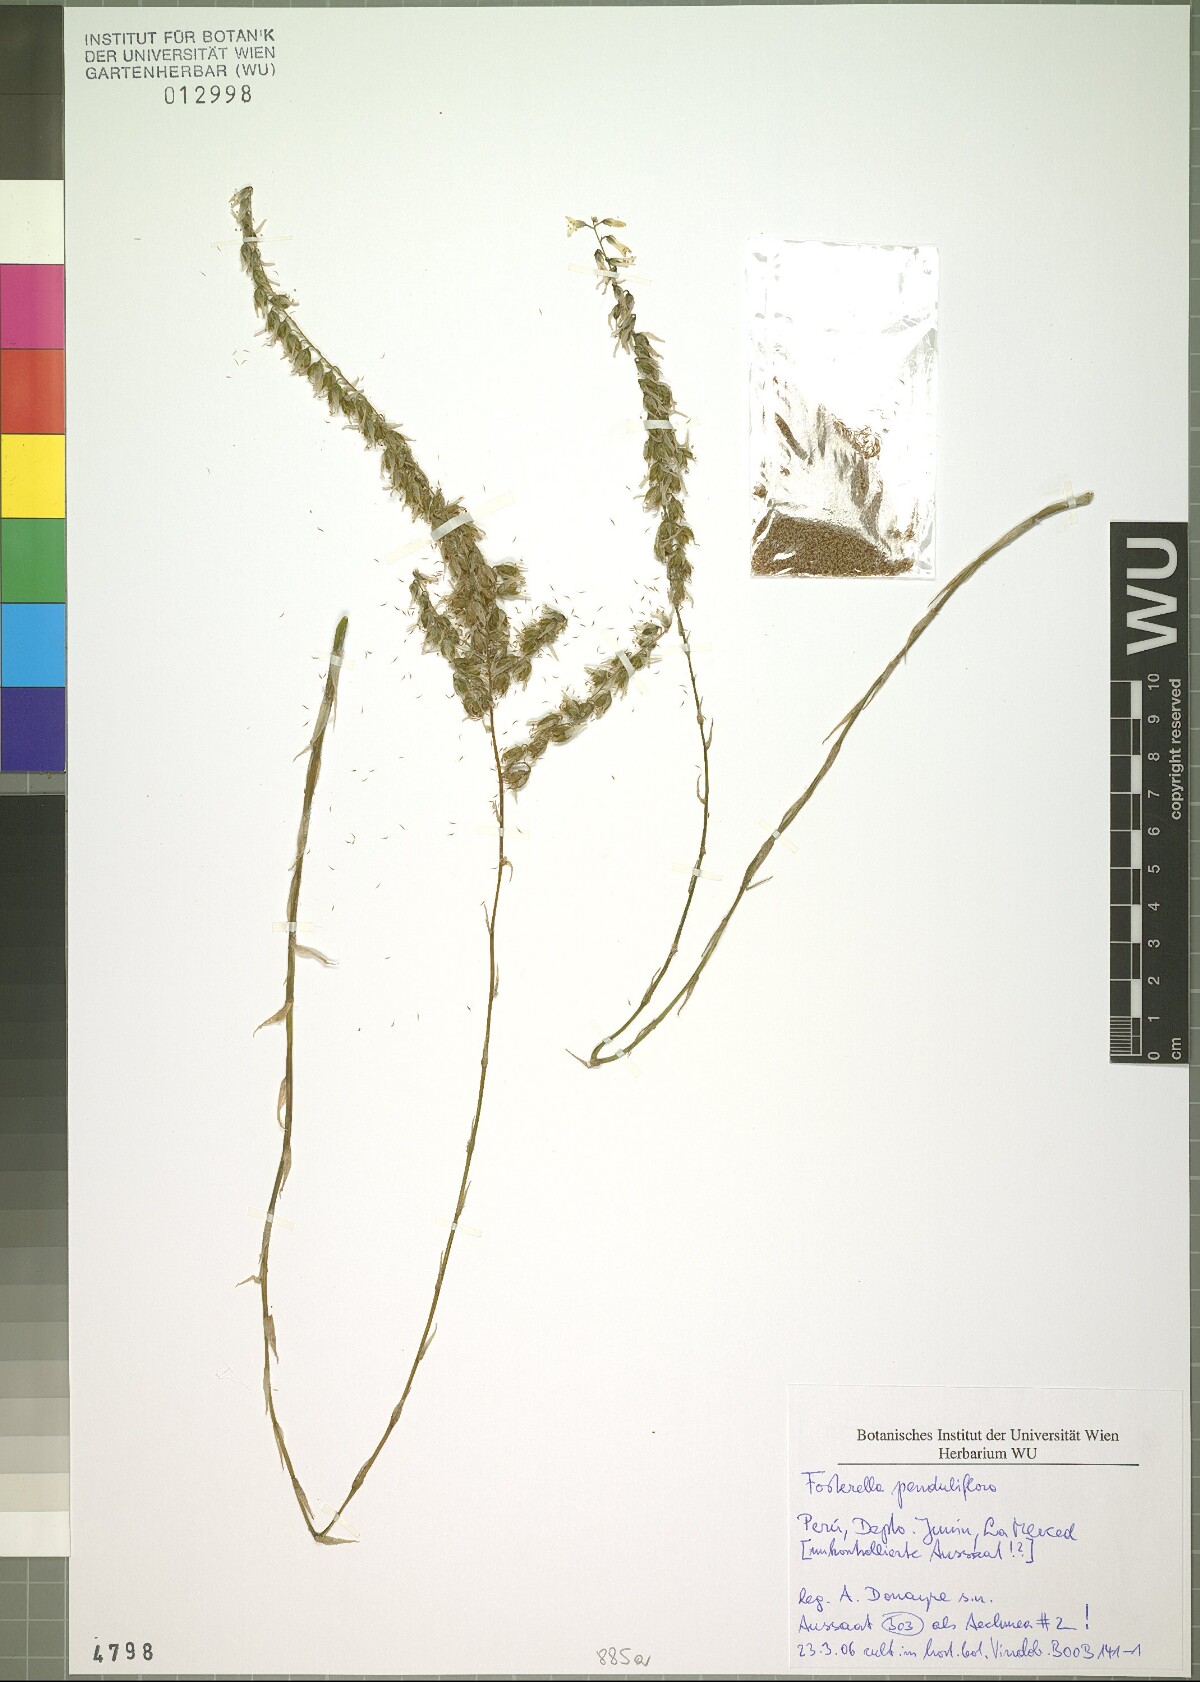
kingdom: Plantae
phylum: Tracheophyta
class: Liliopsida
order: Poales
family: Bromeliaceae
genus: Fosterella
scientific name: Fosterella penduliflora
